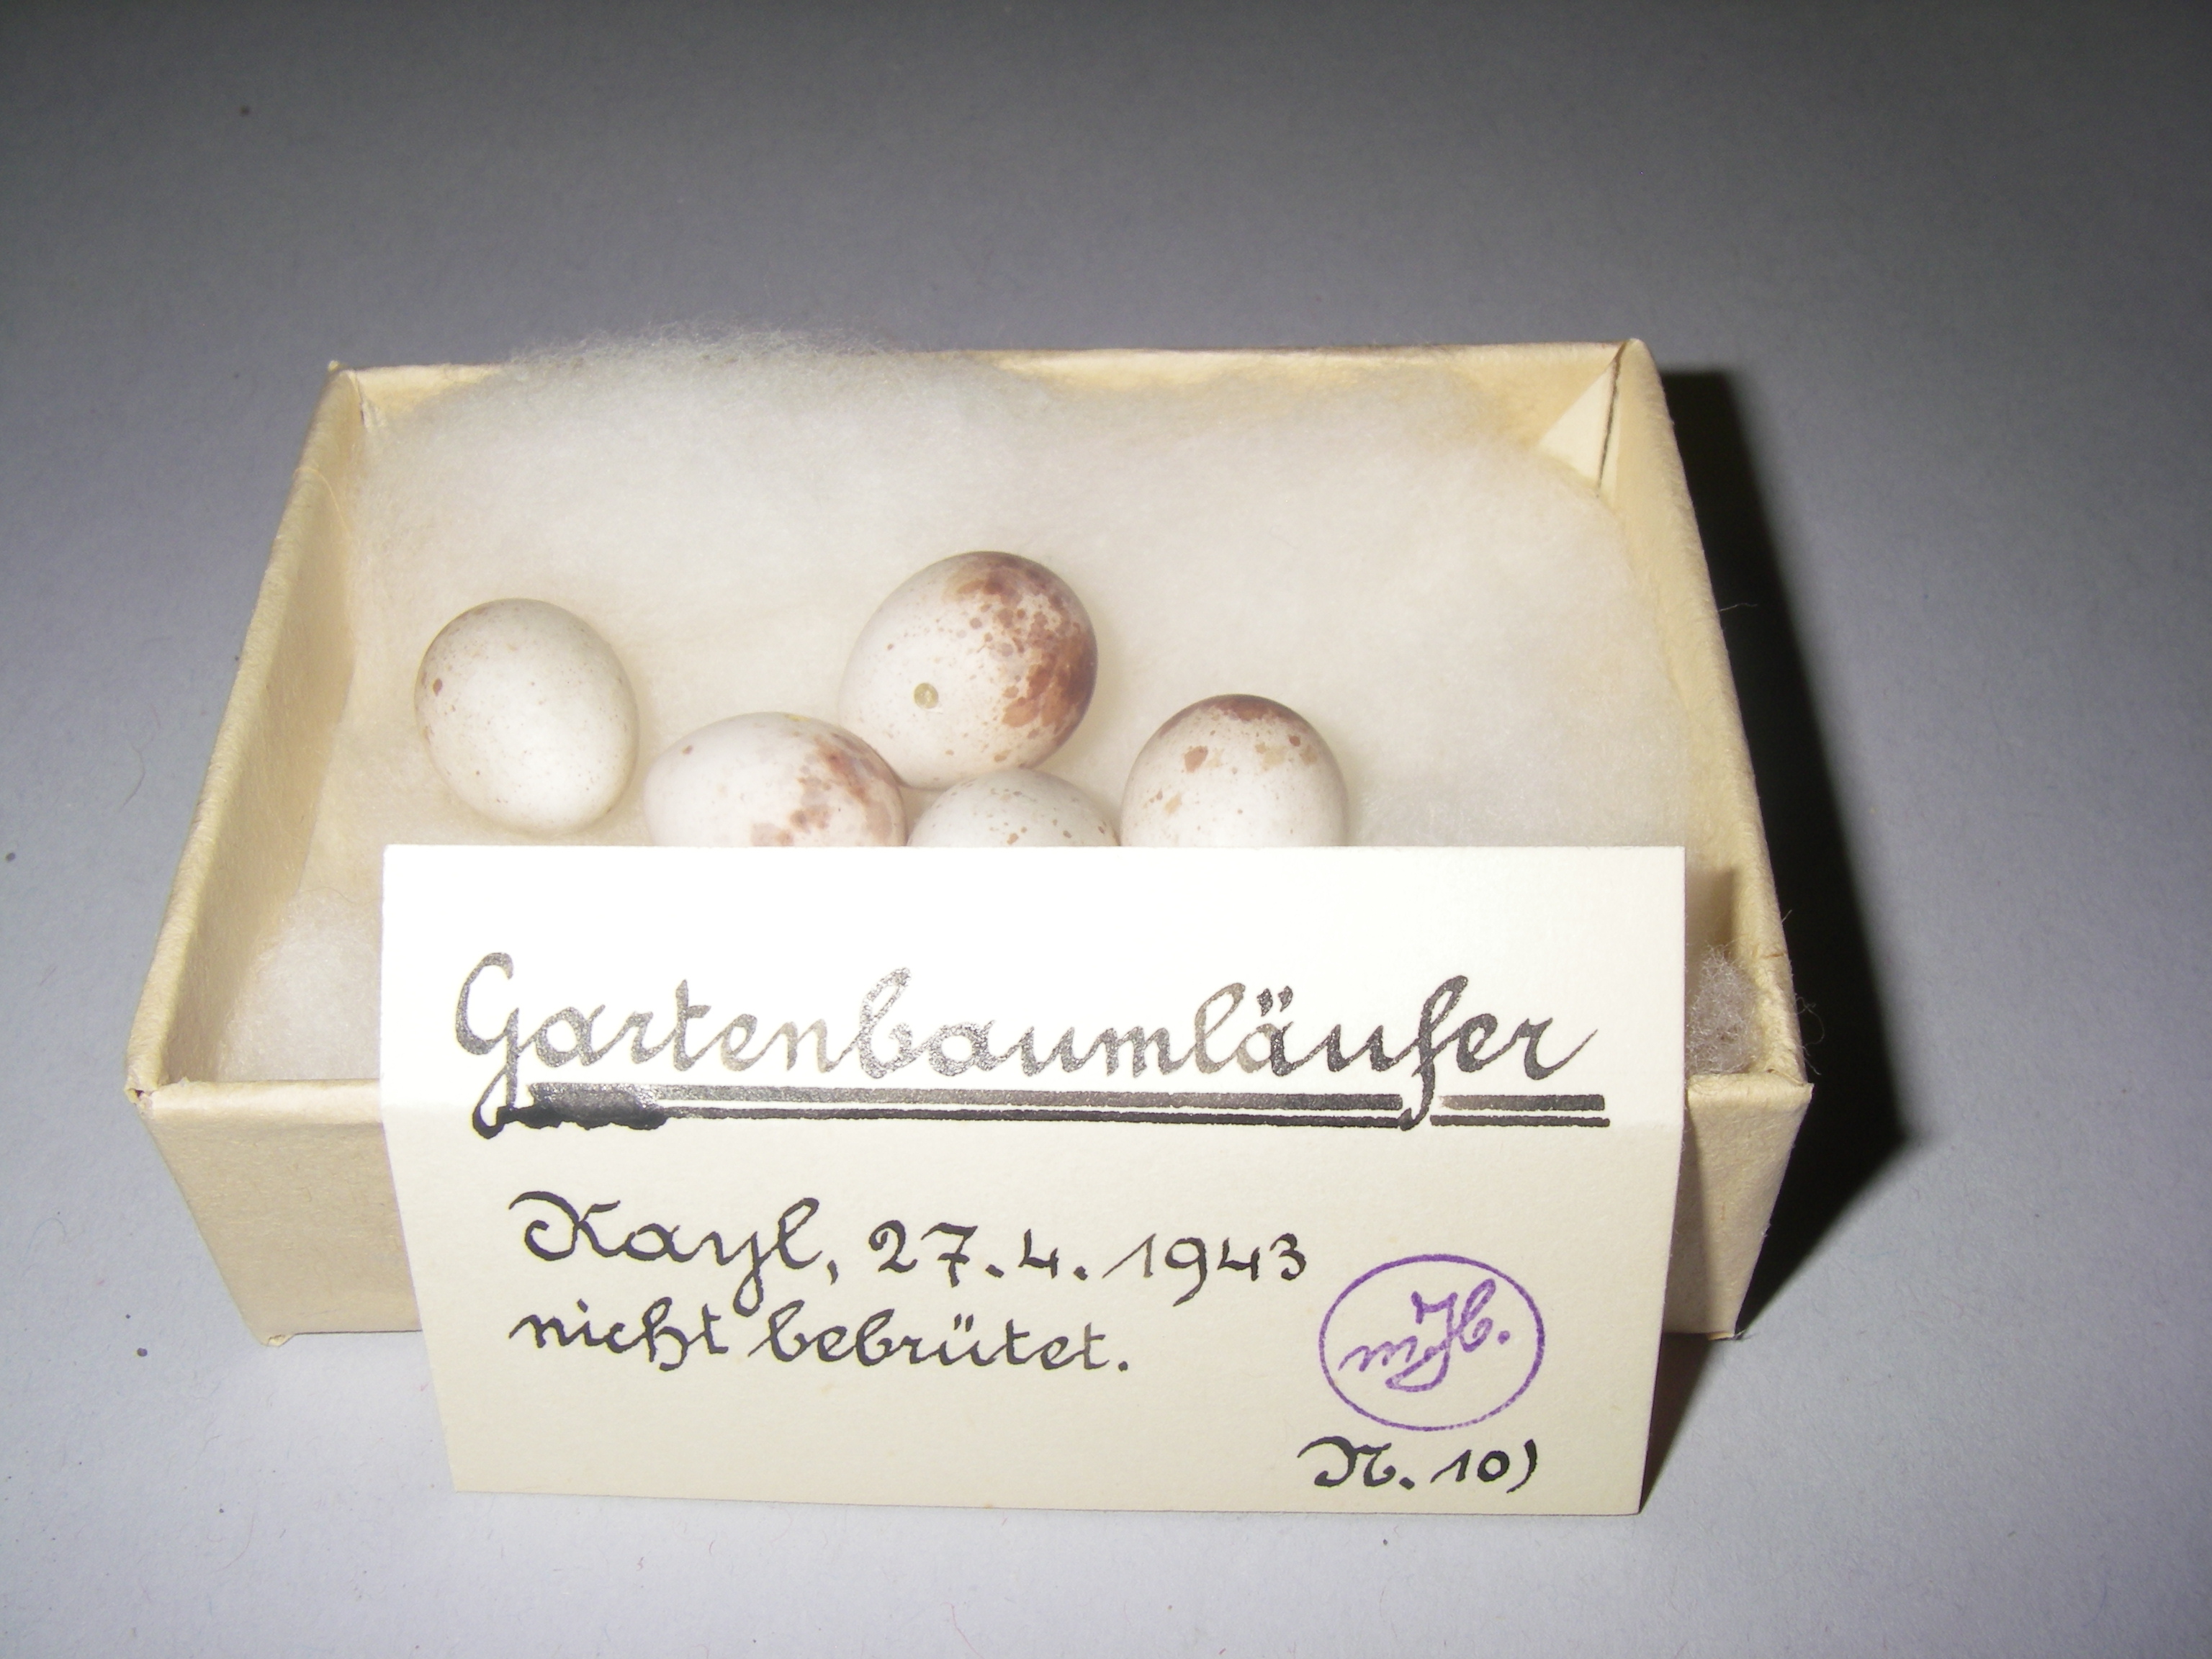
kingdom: Animalia
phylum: Chordata
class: Aves
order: Passeriformes
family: Certhiidae
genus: Certhia
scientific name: Certhia brachydactyla
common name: Short-toed treecreeper
